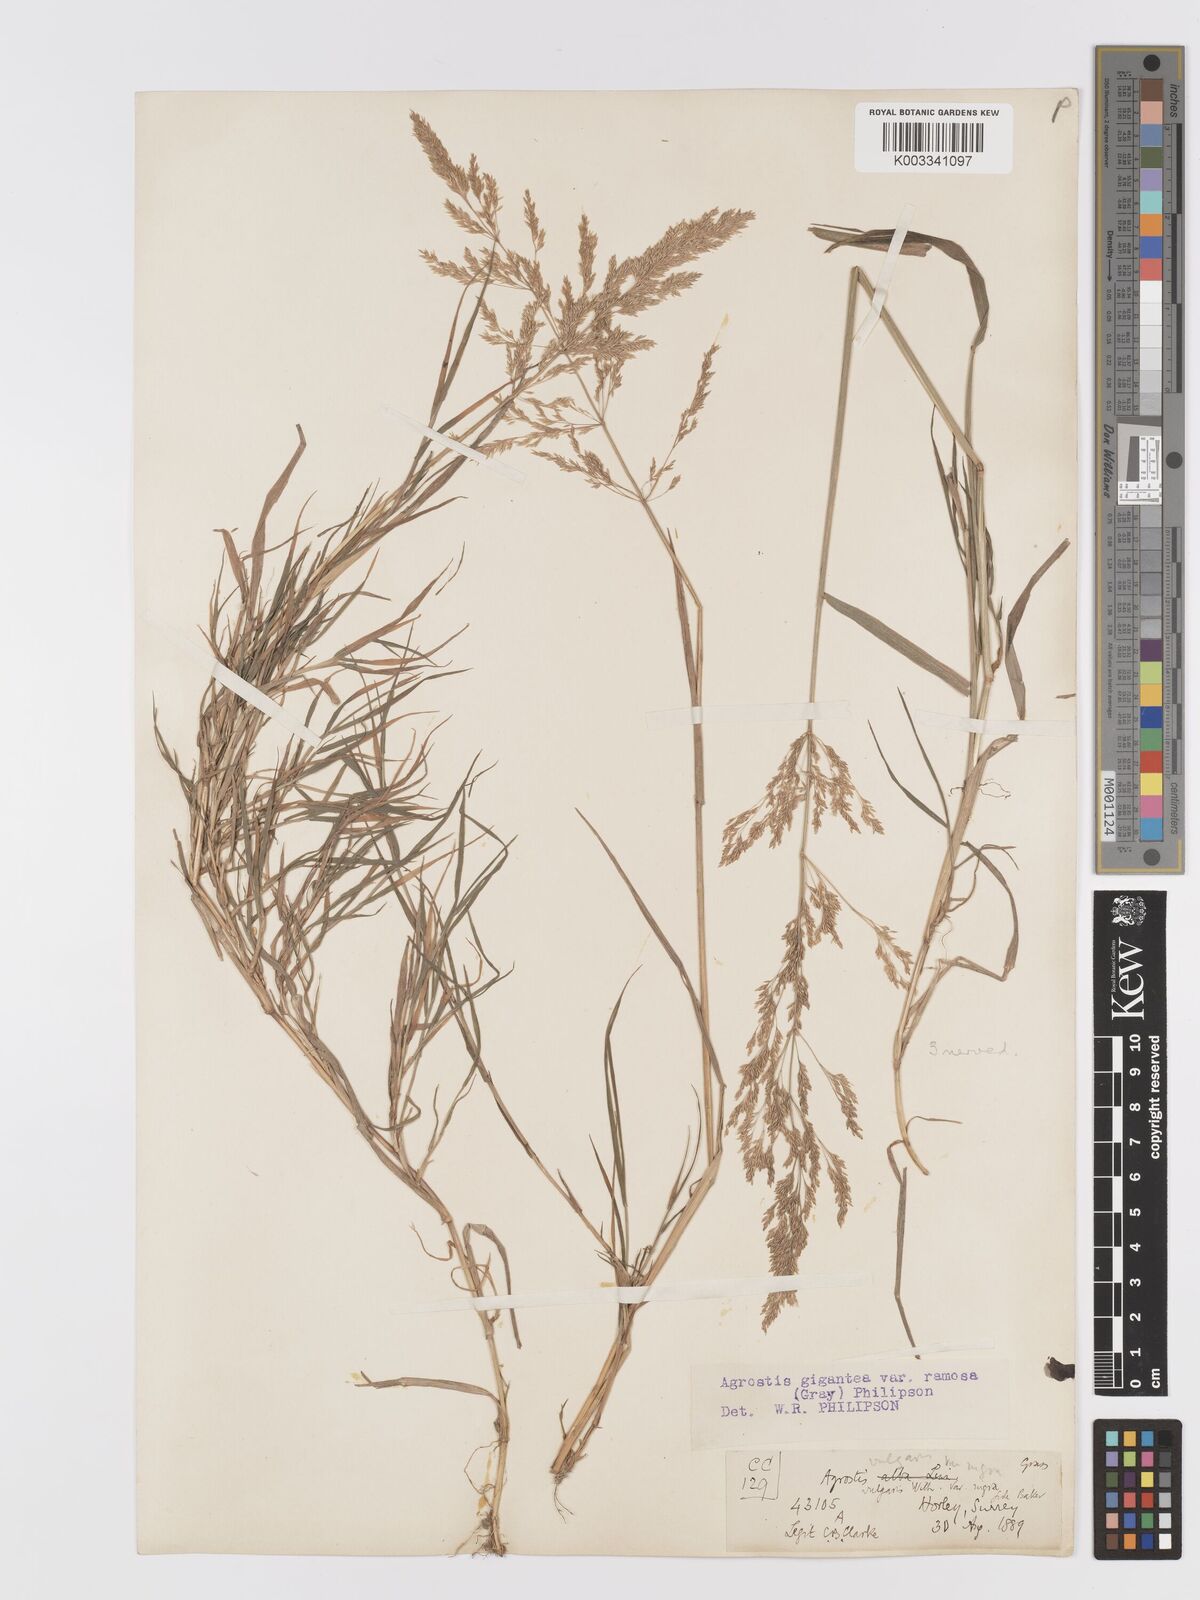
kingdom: Plantae
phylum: Tracheophyta
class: Liliopsida
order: Poales
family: Poaceae
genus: Agrostis
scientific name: Agrostis gigantea
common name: Black bent
